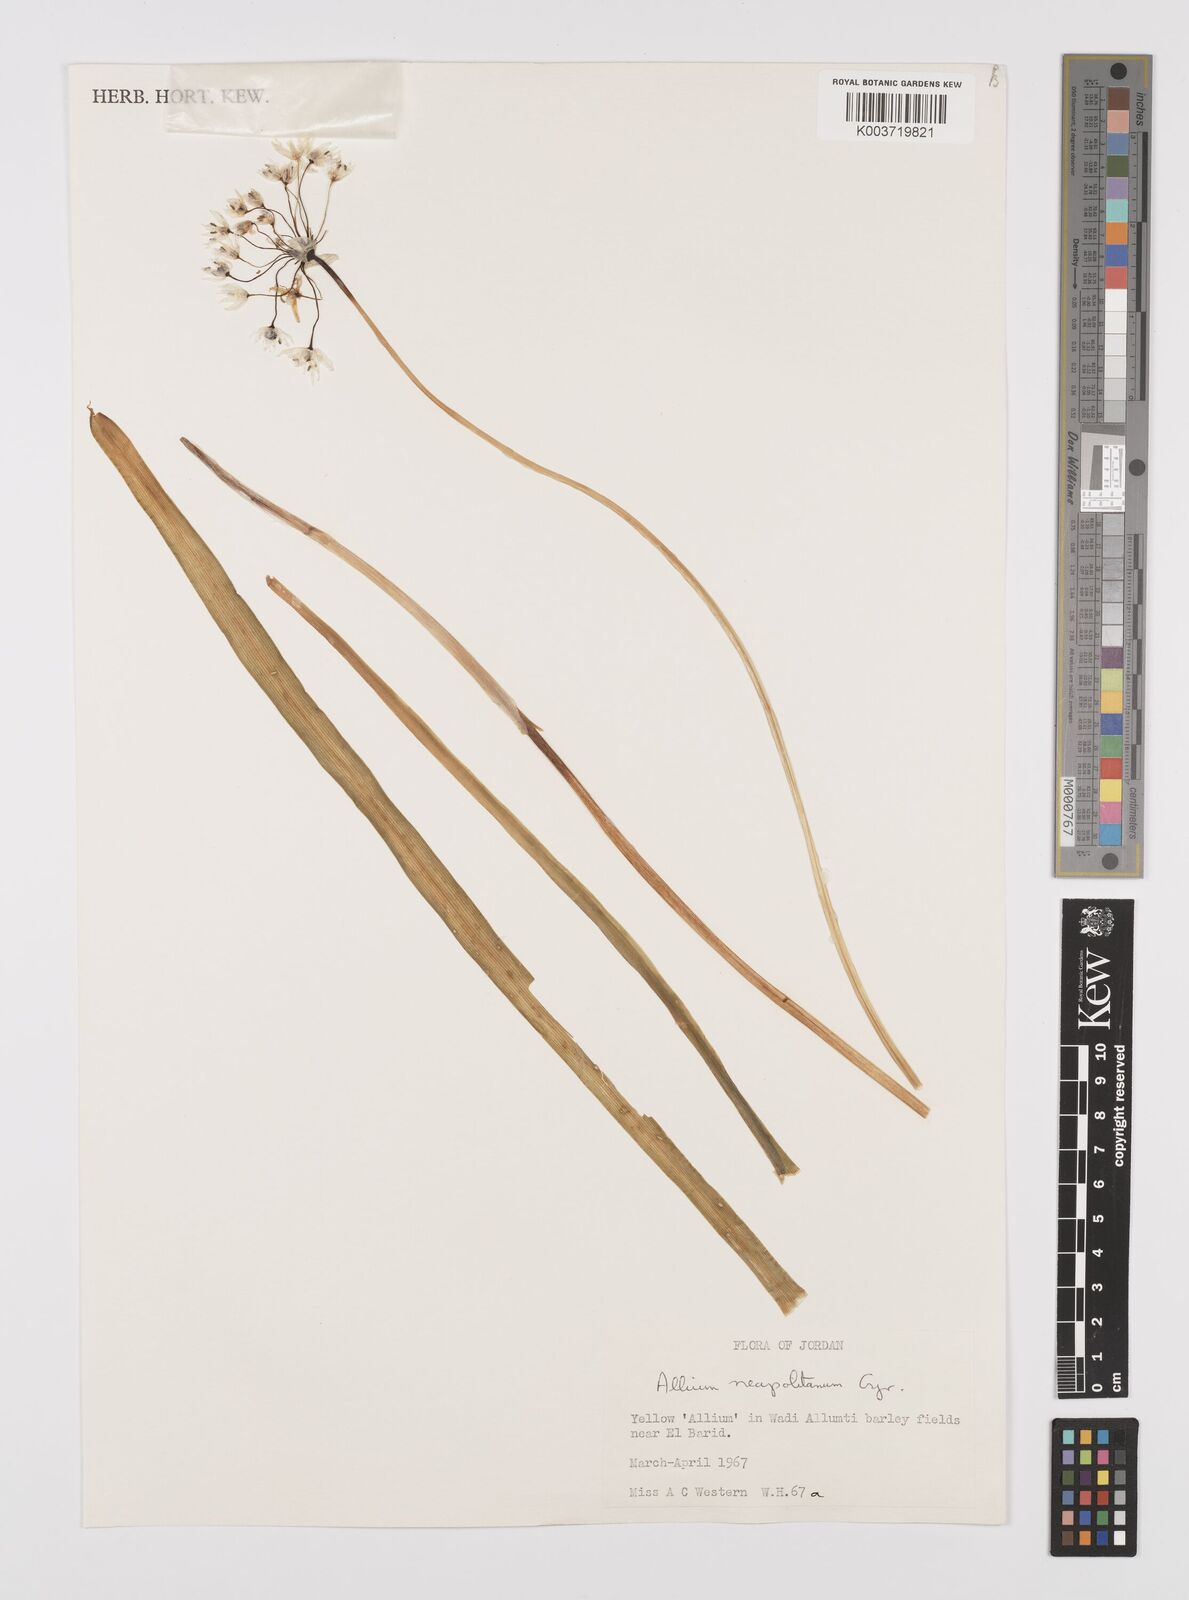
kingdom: Plantae
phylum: Tracheophyta
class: Liliopsida
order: Asparagales
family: Amaryllidaceae
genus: Allium
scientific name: Allium neapolitanum
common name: Neapolitan garlic
